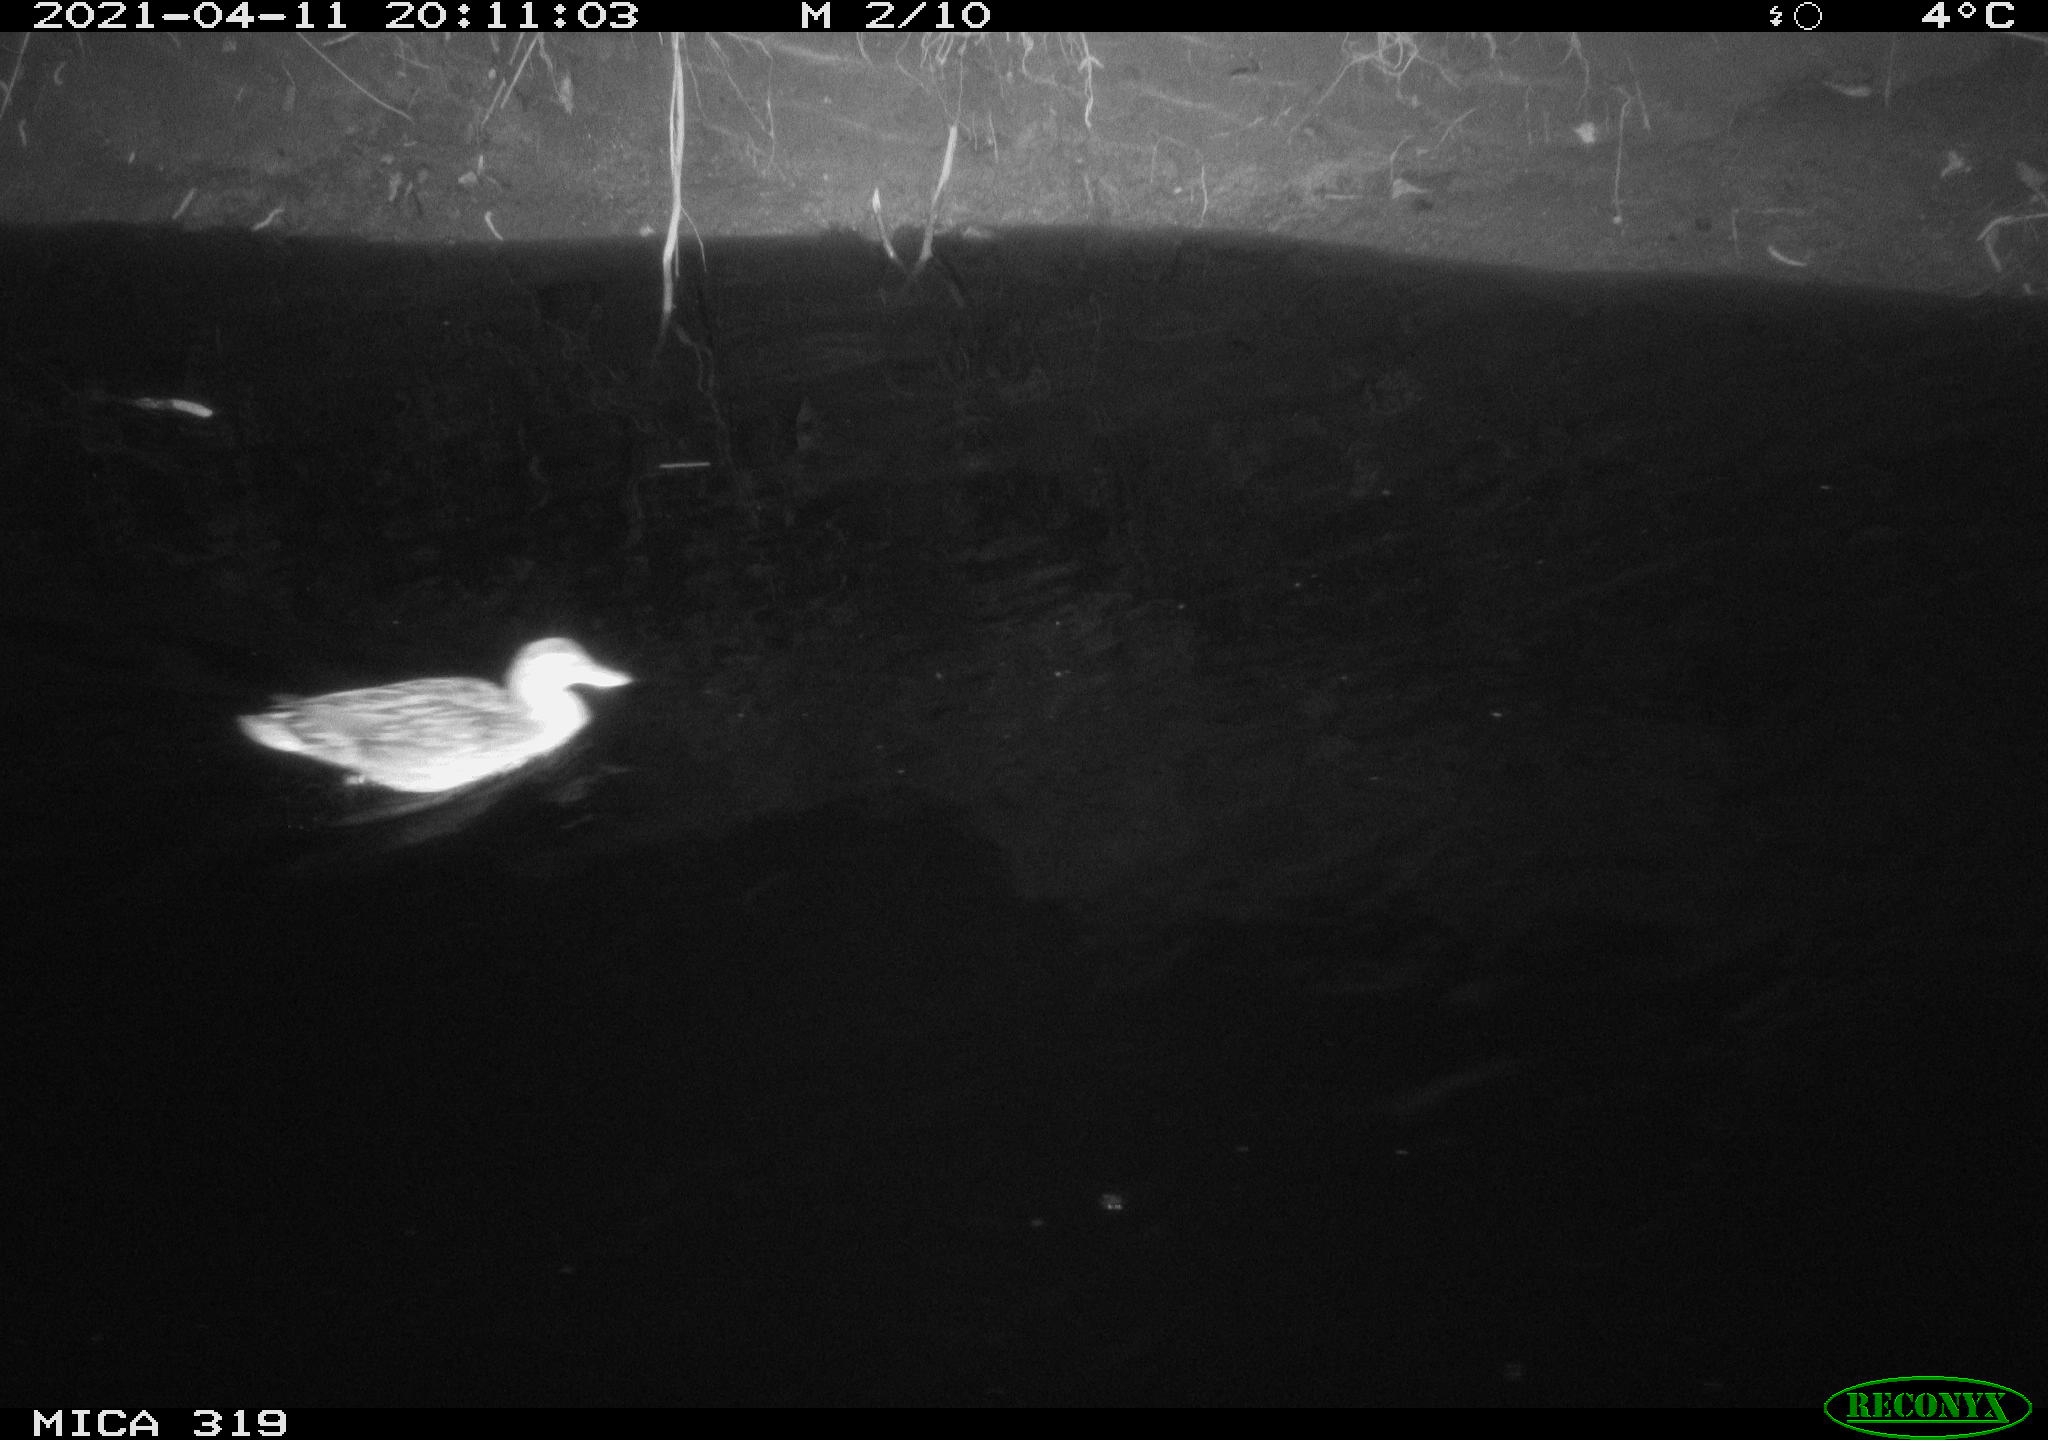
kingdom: Animalia
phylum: Chordata
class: Aves
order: Anseriformes
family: Anatidae
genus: Anas
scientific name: Anas platyrhynchos
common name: Mallard
